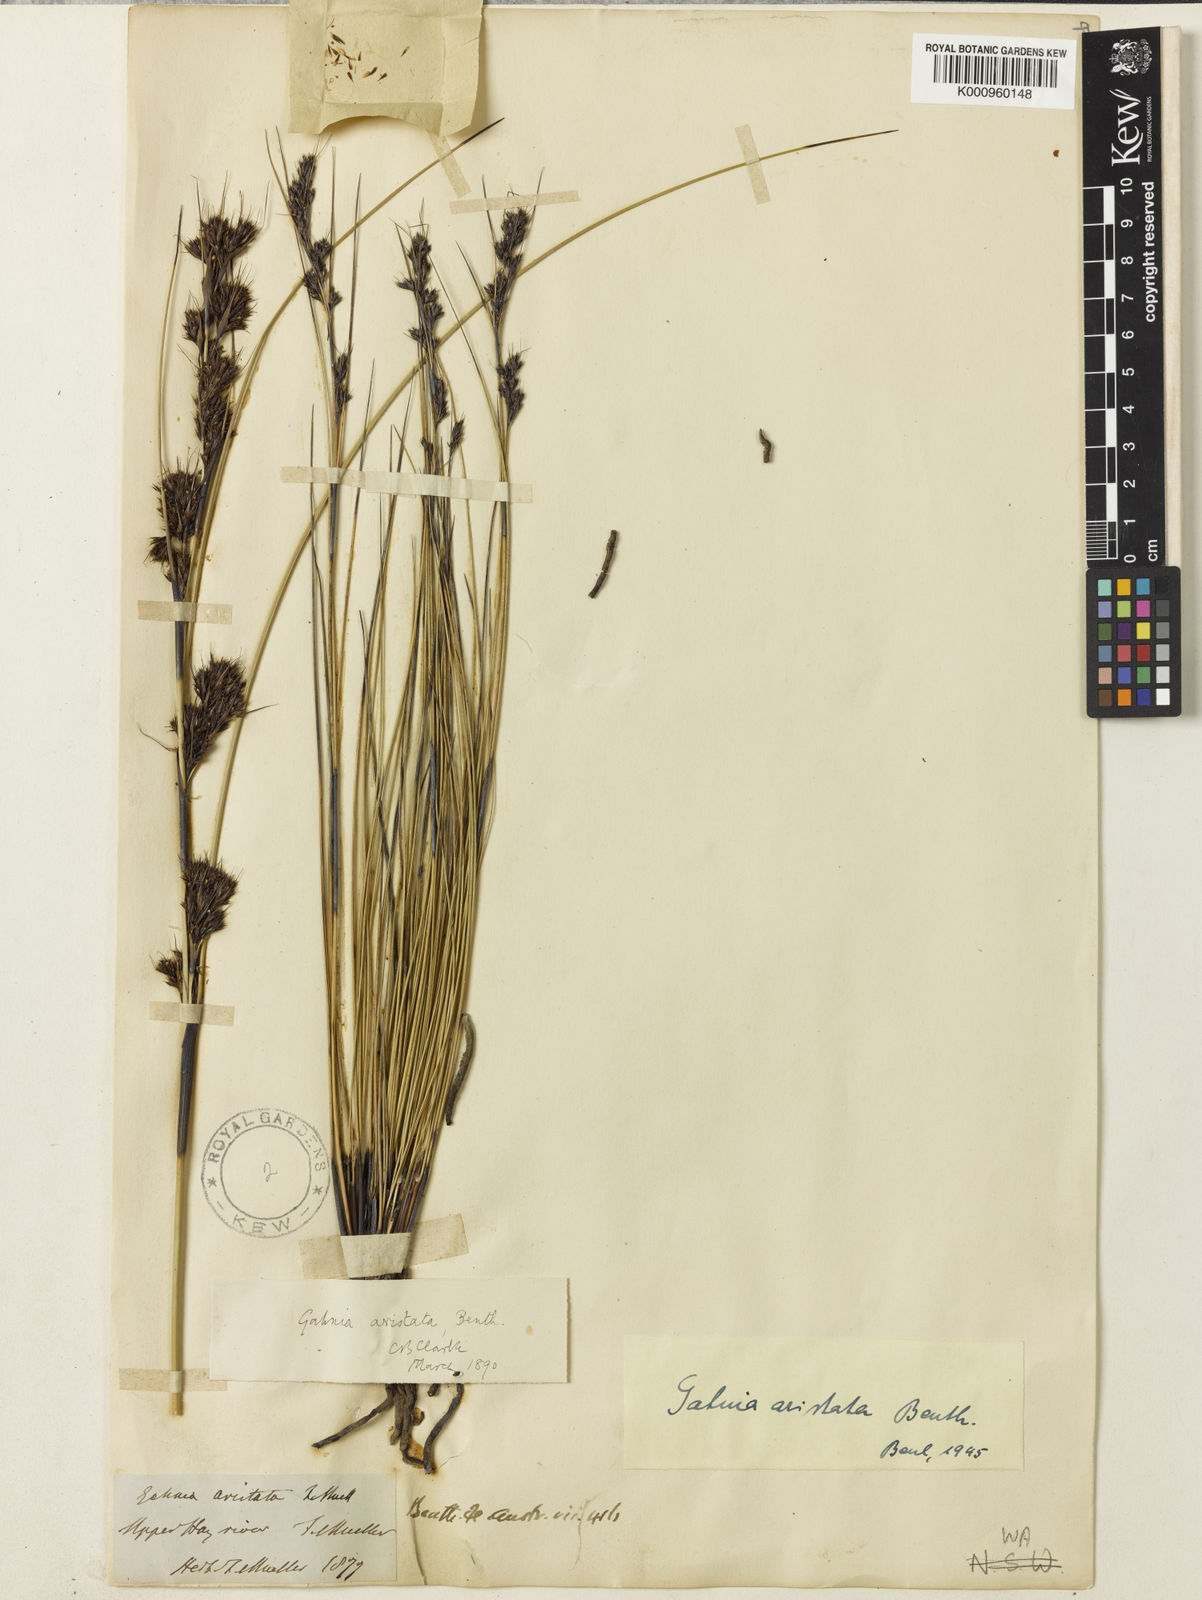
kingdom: Plantae
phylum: Tracheophyta
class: Liliopsida
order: Poales
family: Cyperaceae
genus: Gahnia
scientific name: Gahnia aristata
